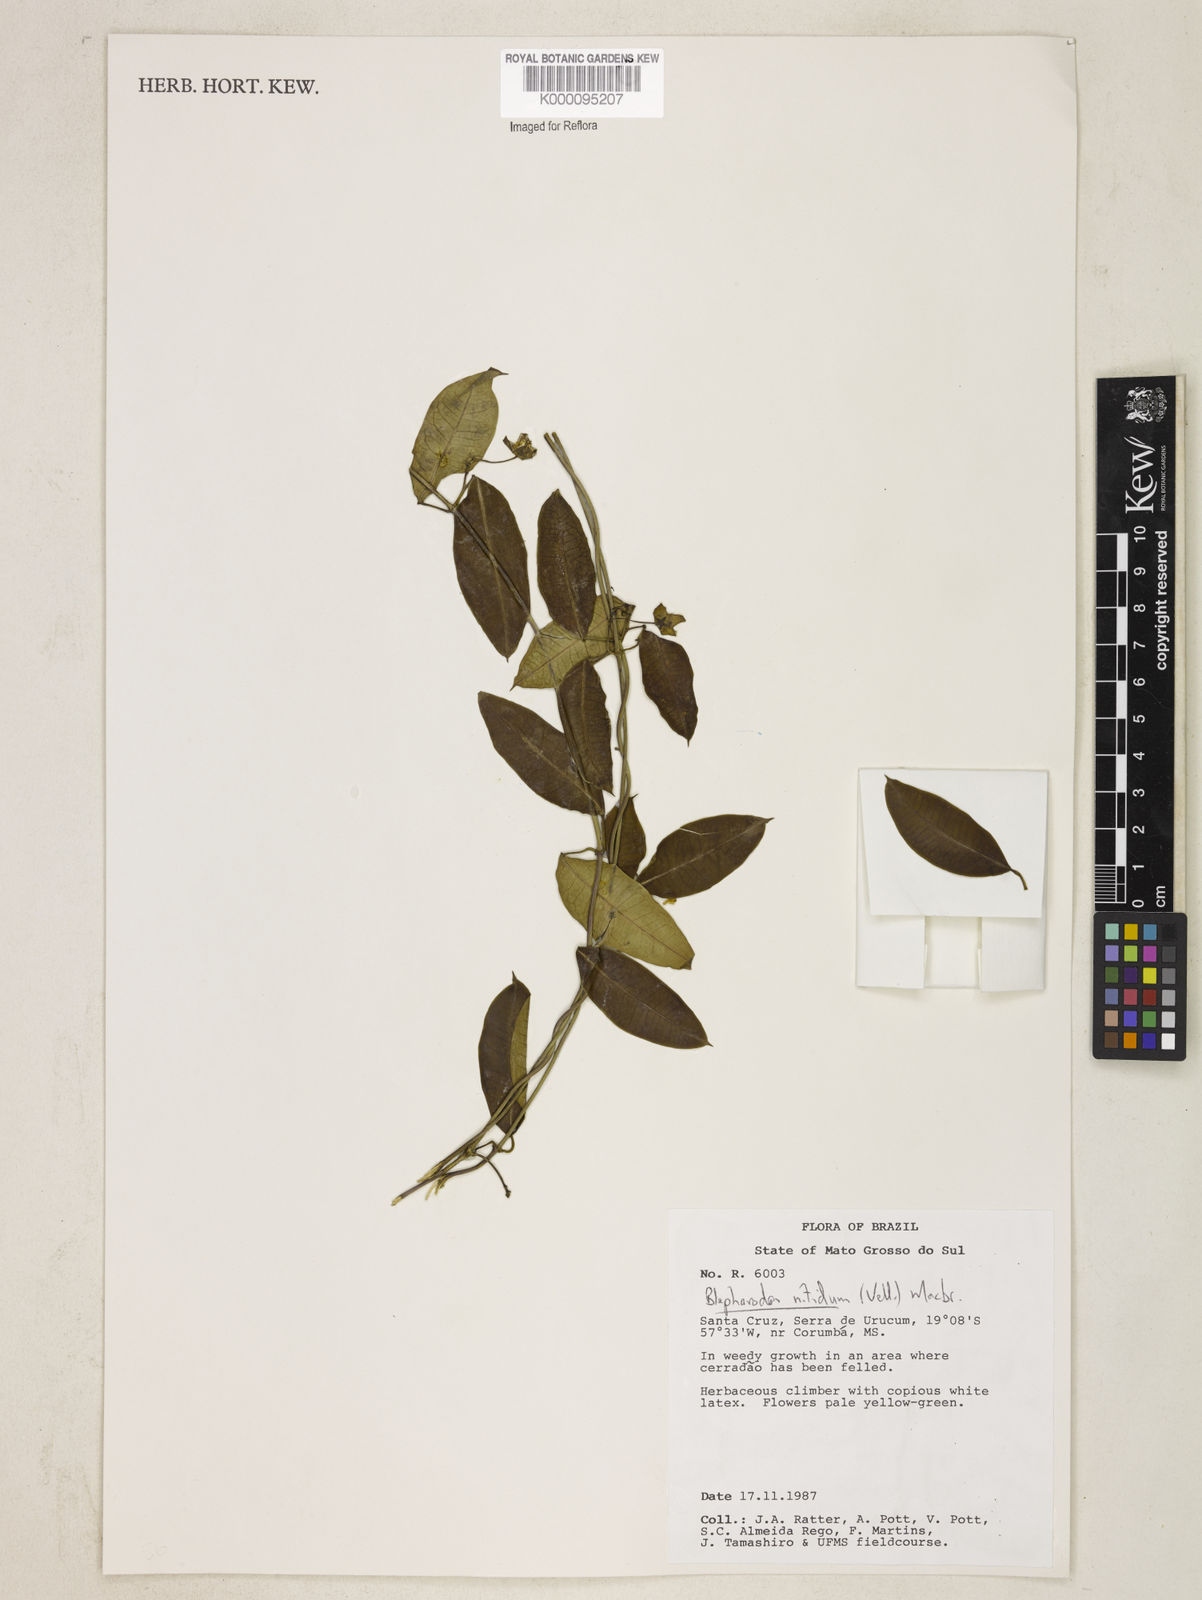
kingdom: Plantae
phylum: Tracheophyta
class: Magnoliopsida
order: Gentianales
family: Apocynaceae
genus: Blepharodon
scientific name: Blepharodon pictum
